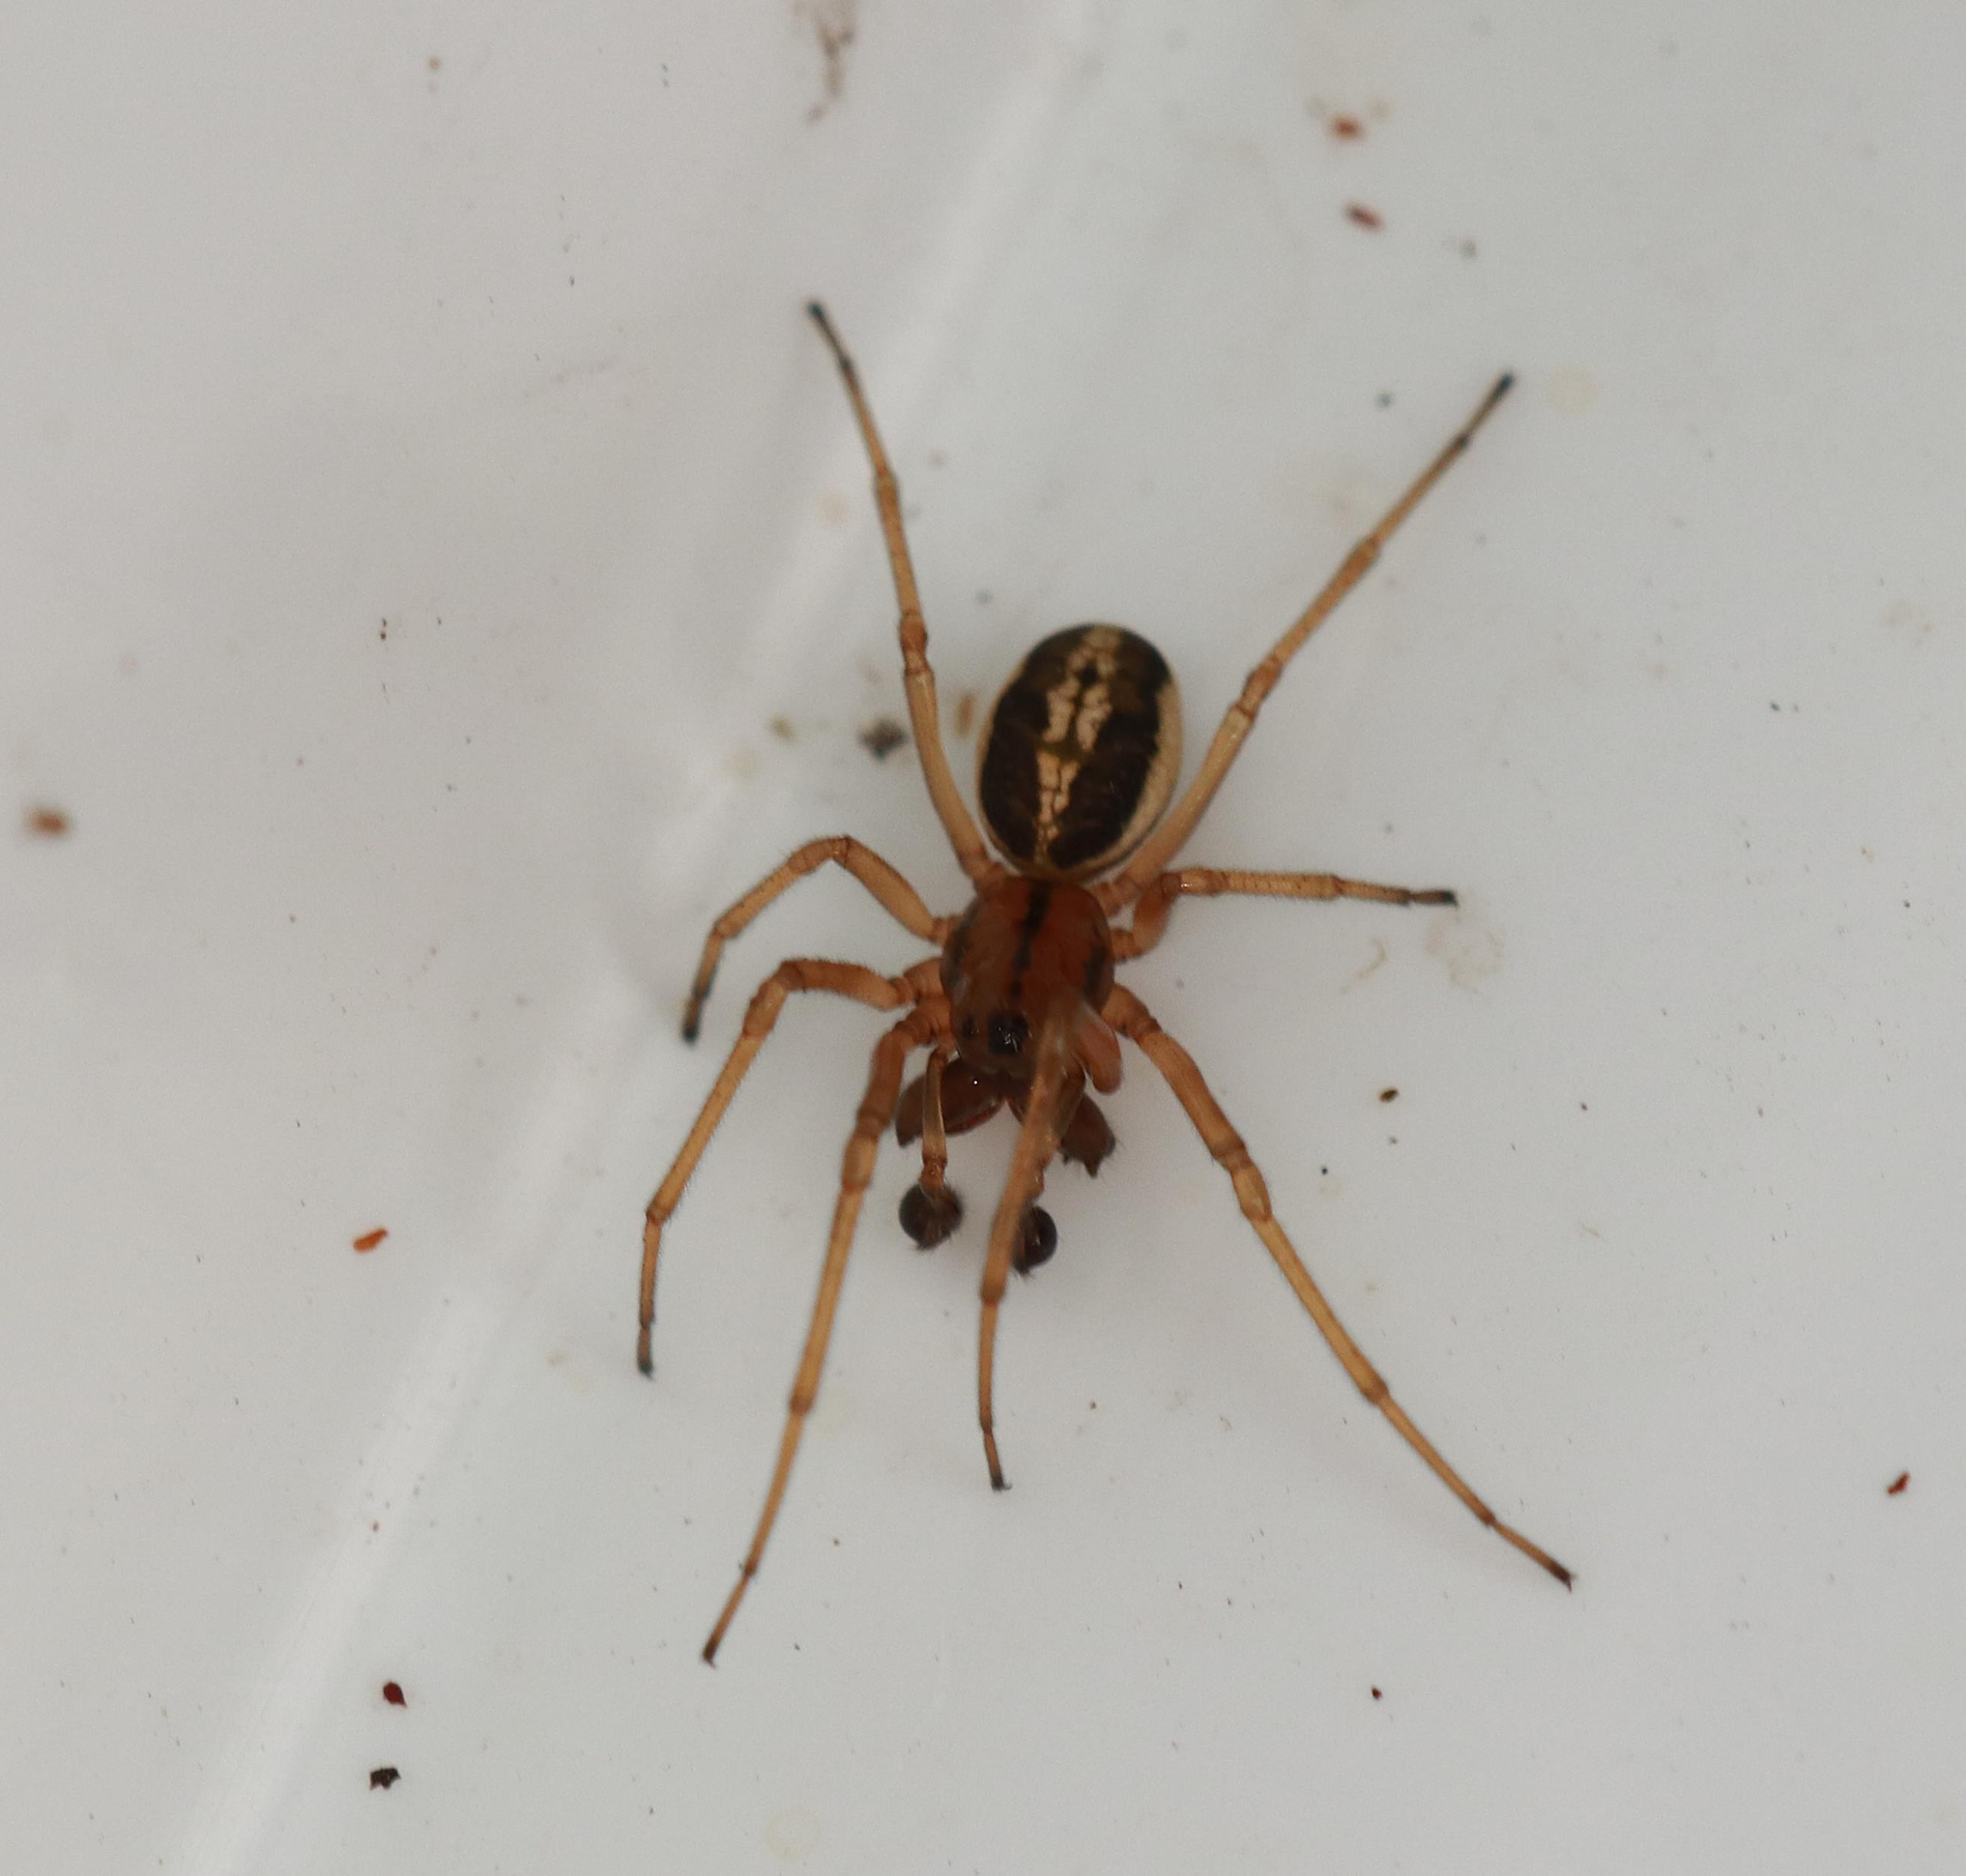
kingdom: Animalia
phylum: Arthropoda
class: Arachnida
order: Araneae
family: Tetragnathidae
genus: Pachygnatha
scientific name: Pachygnatha clercki
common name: Søtykkæbe
